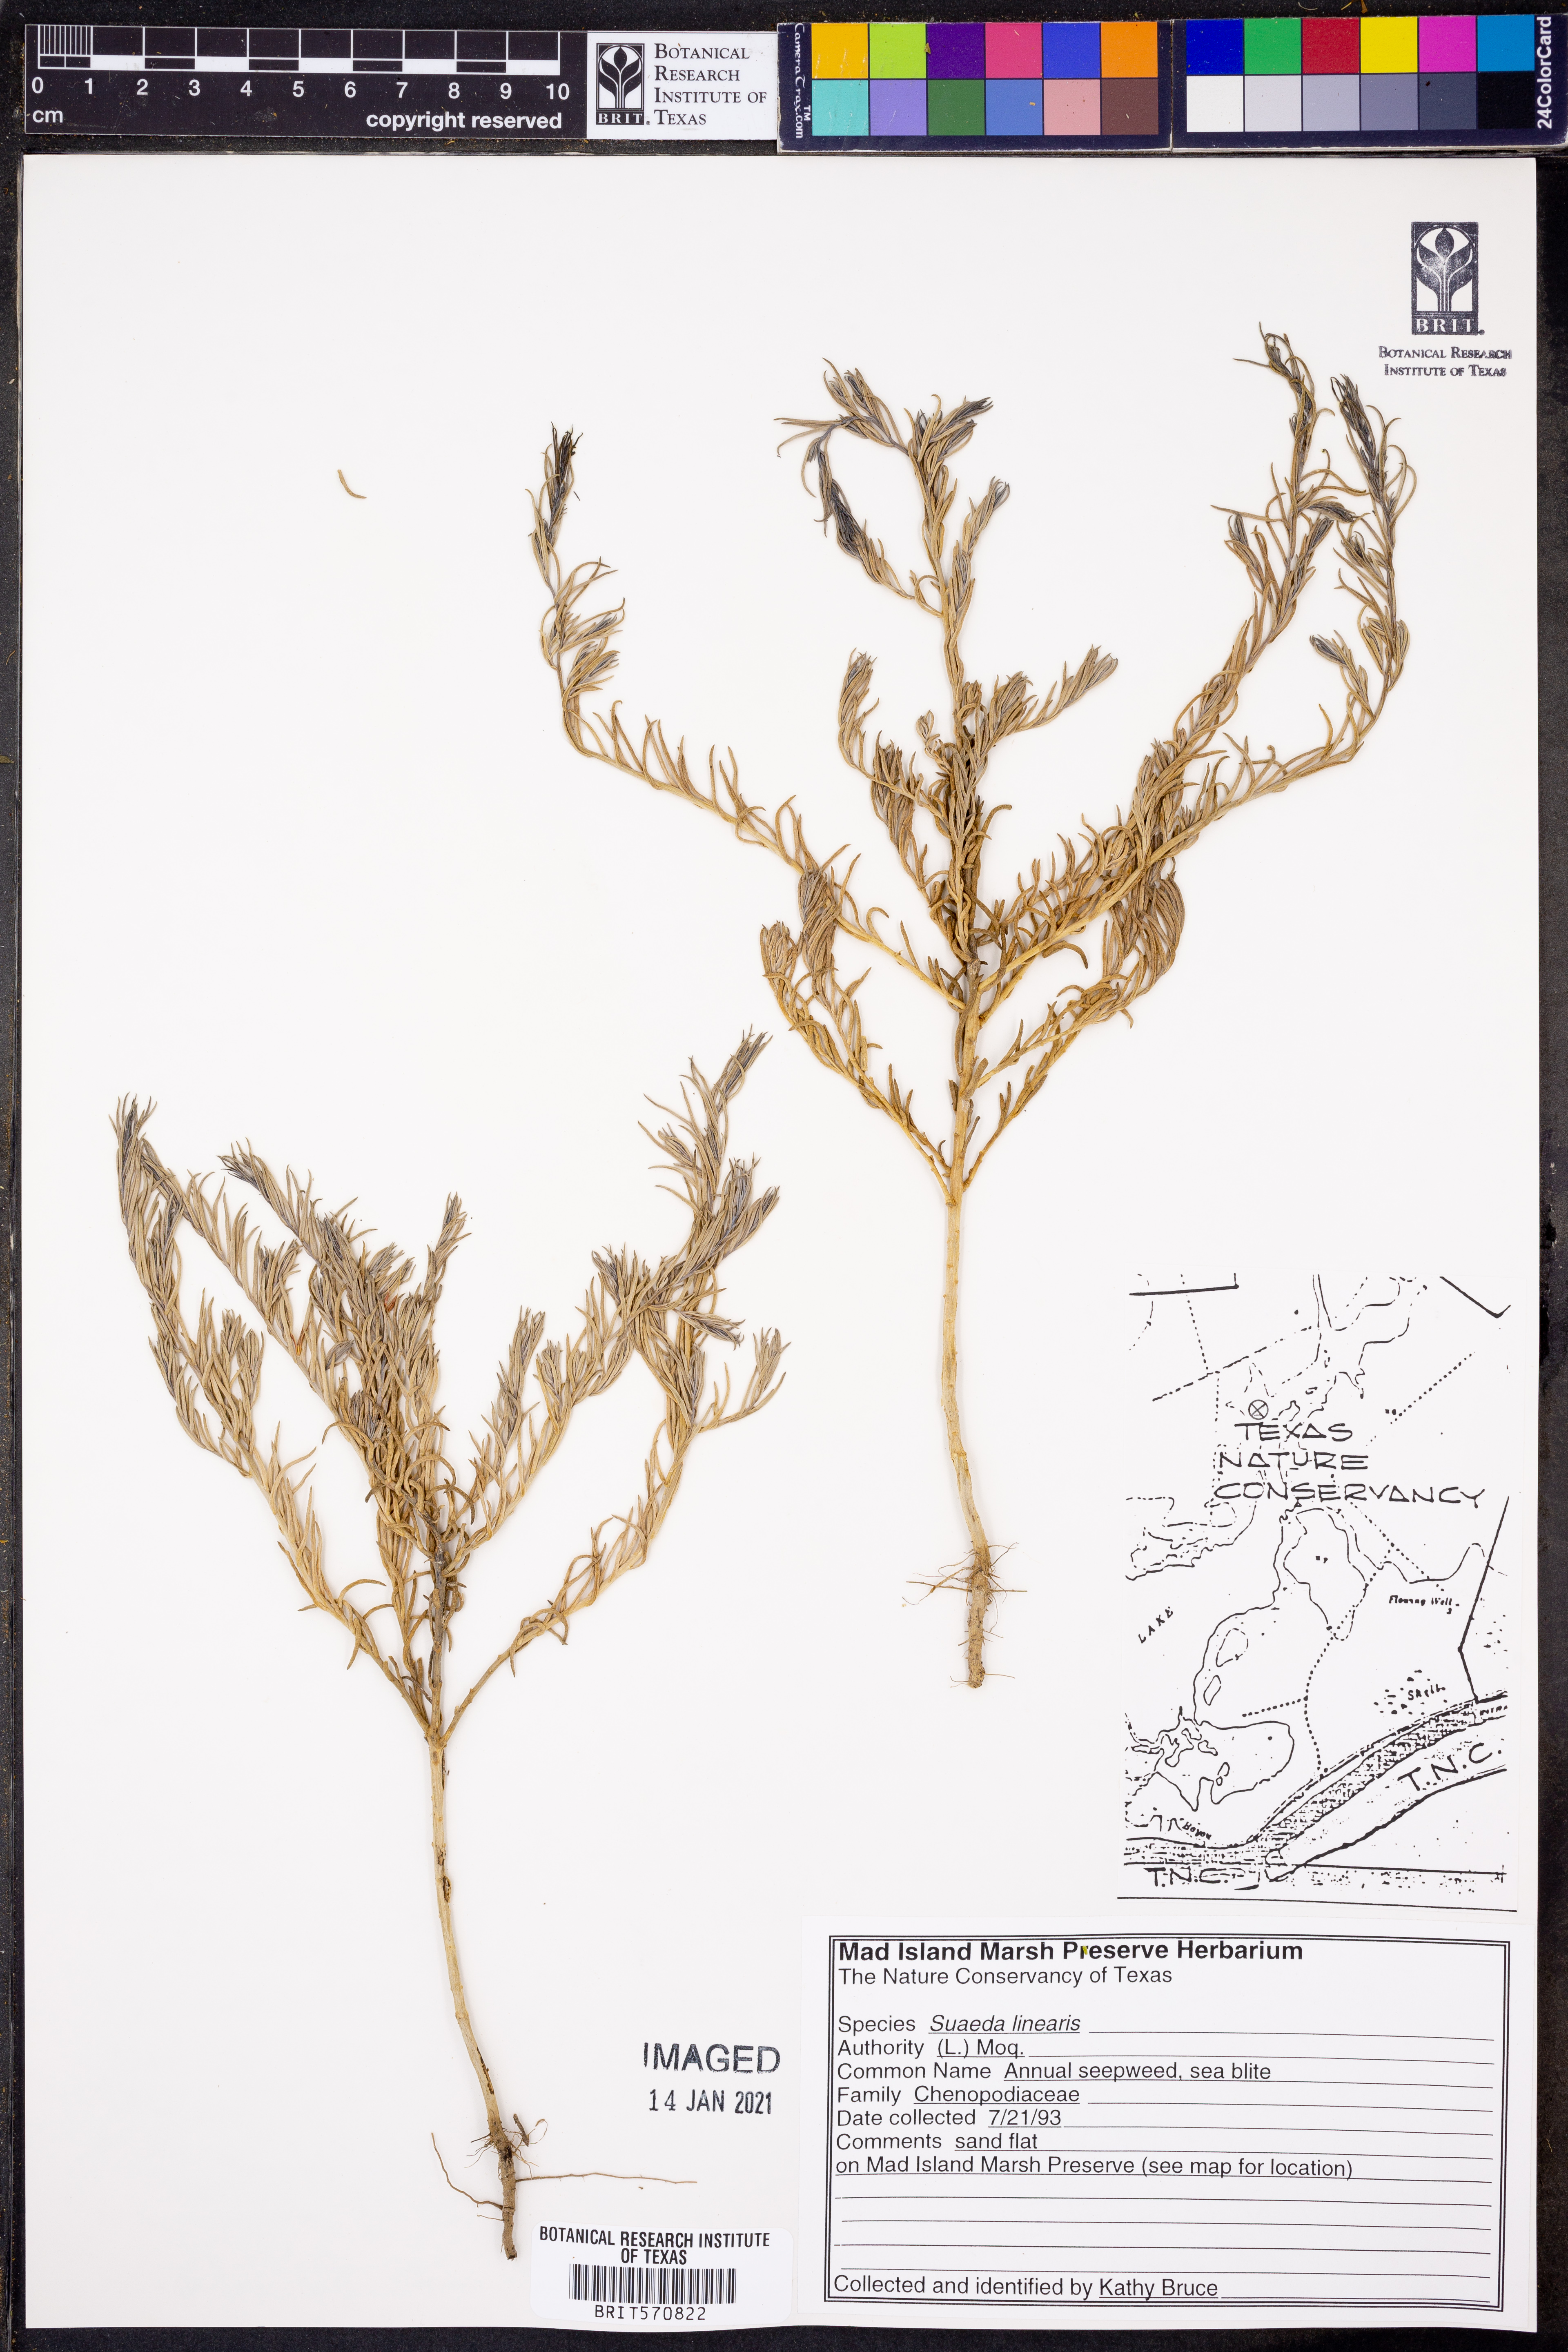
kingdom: Plantae
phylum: Tracheophyta
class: Magnoliopsida
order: Caryophyllales
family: Amaranthaceae
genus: Suaeda
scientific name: Suaeda linearis
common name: Annual seepweed
